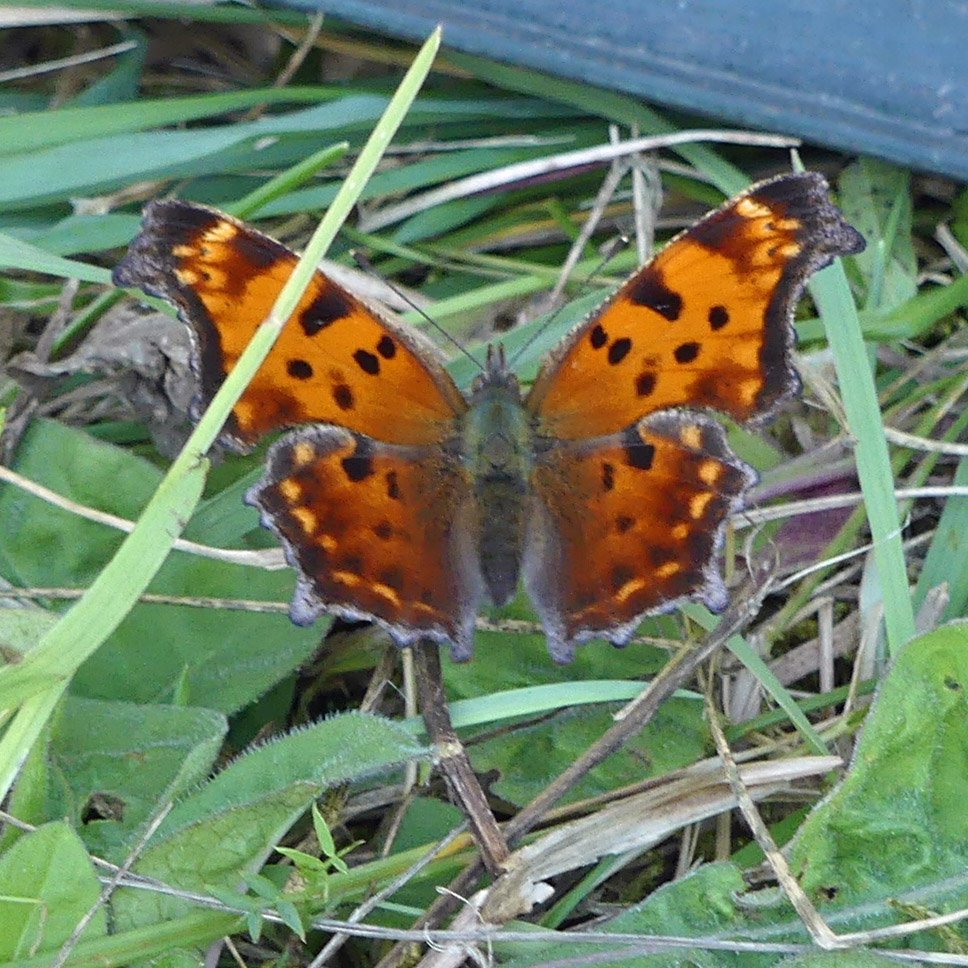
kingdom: Animalia
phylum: Arthropoda
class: Insecta
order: Lepidoptera
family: Nymphalidae
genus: Polygonia
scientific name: Polygonia comma
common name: Eastern Comma
